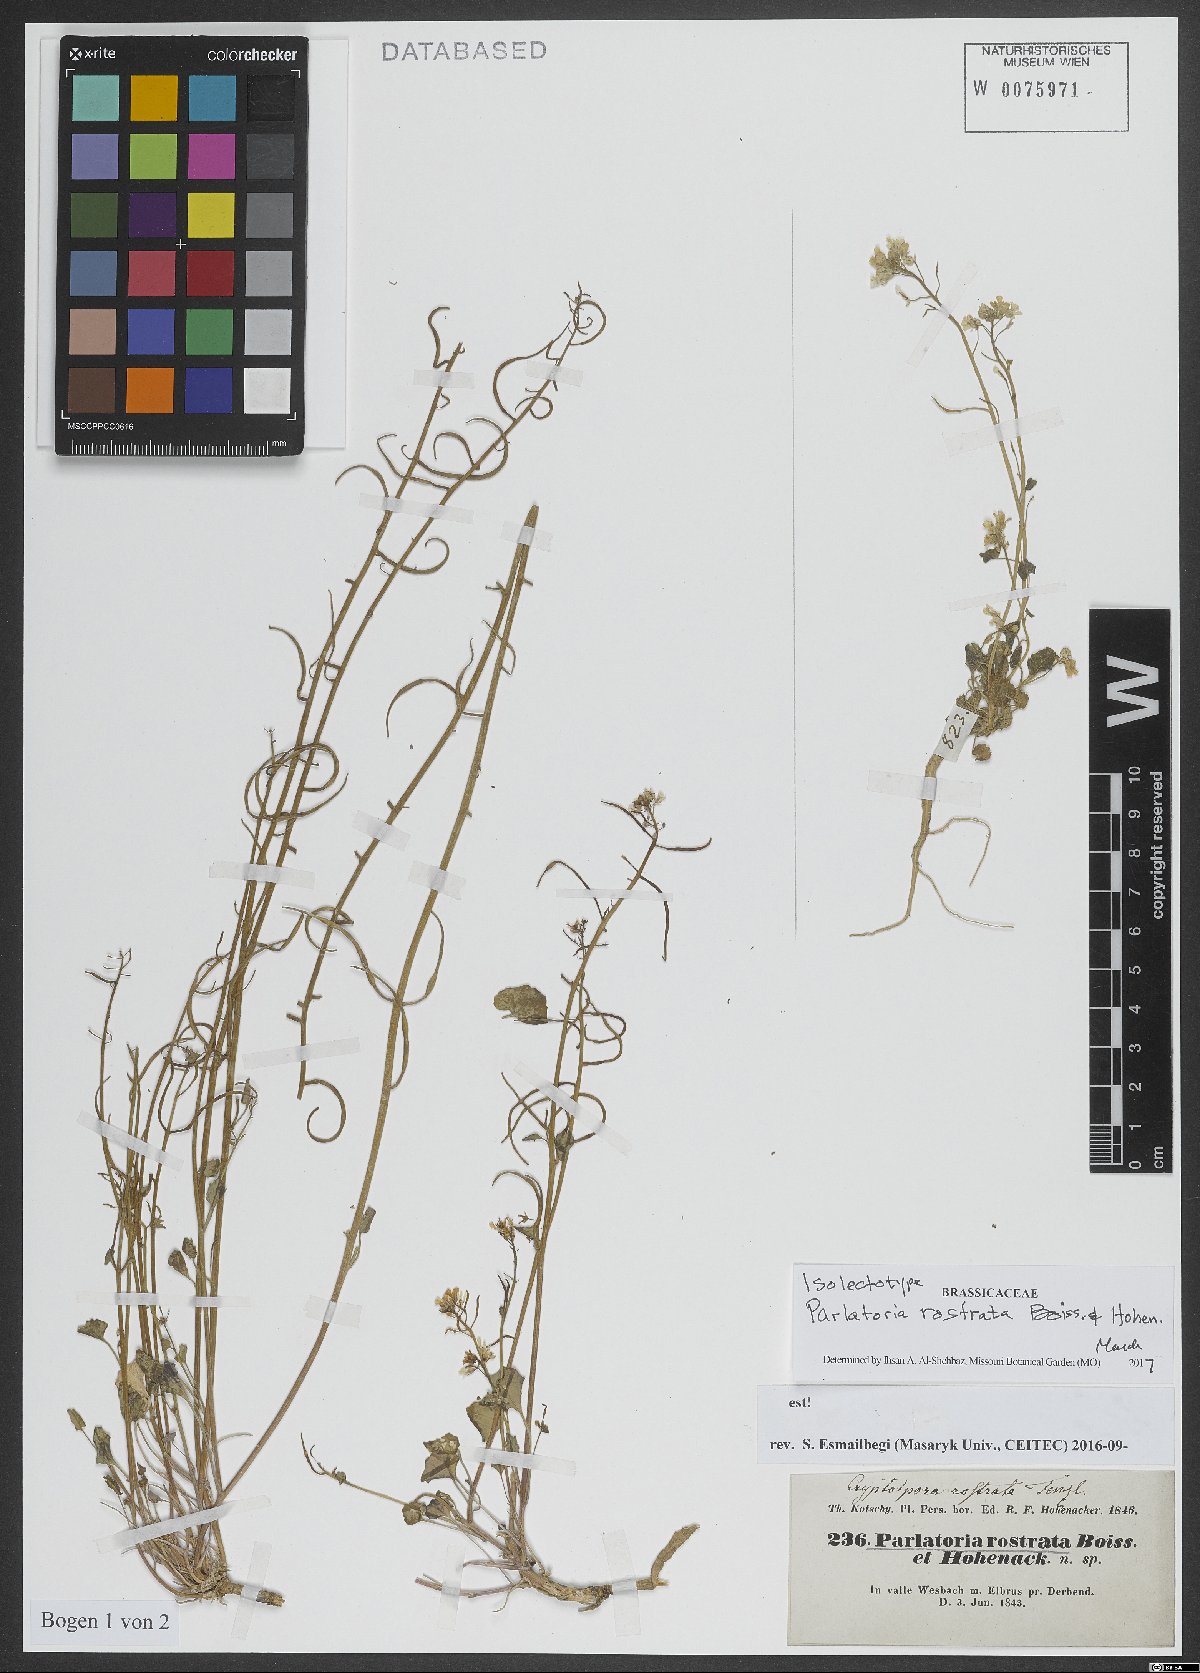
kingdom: Plantae
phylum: Tracheophyta
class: Magnoliopsida
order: Brassicales
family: Brassicaceae
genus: Lysakia
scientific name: Lysakia rostrata
